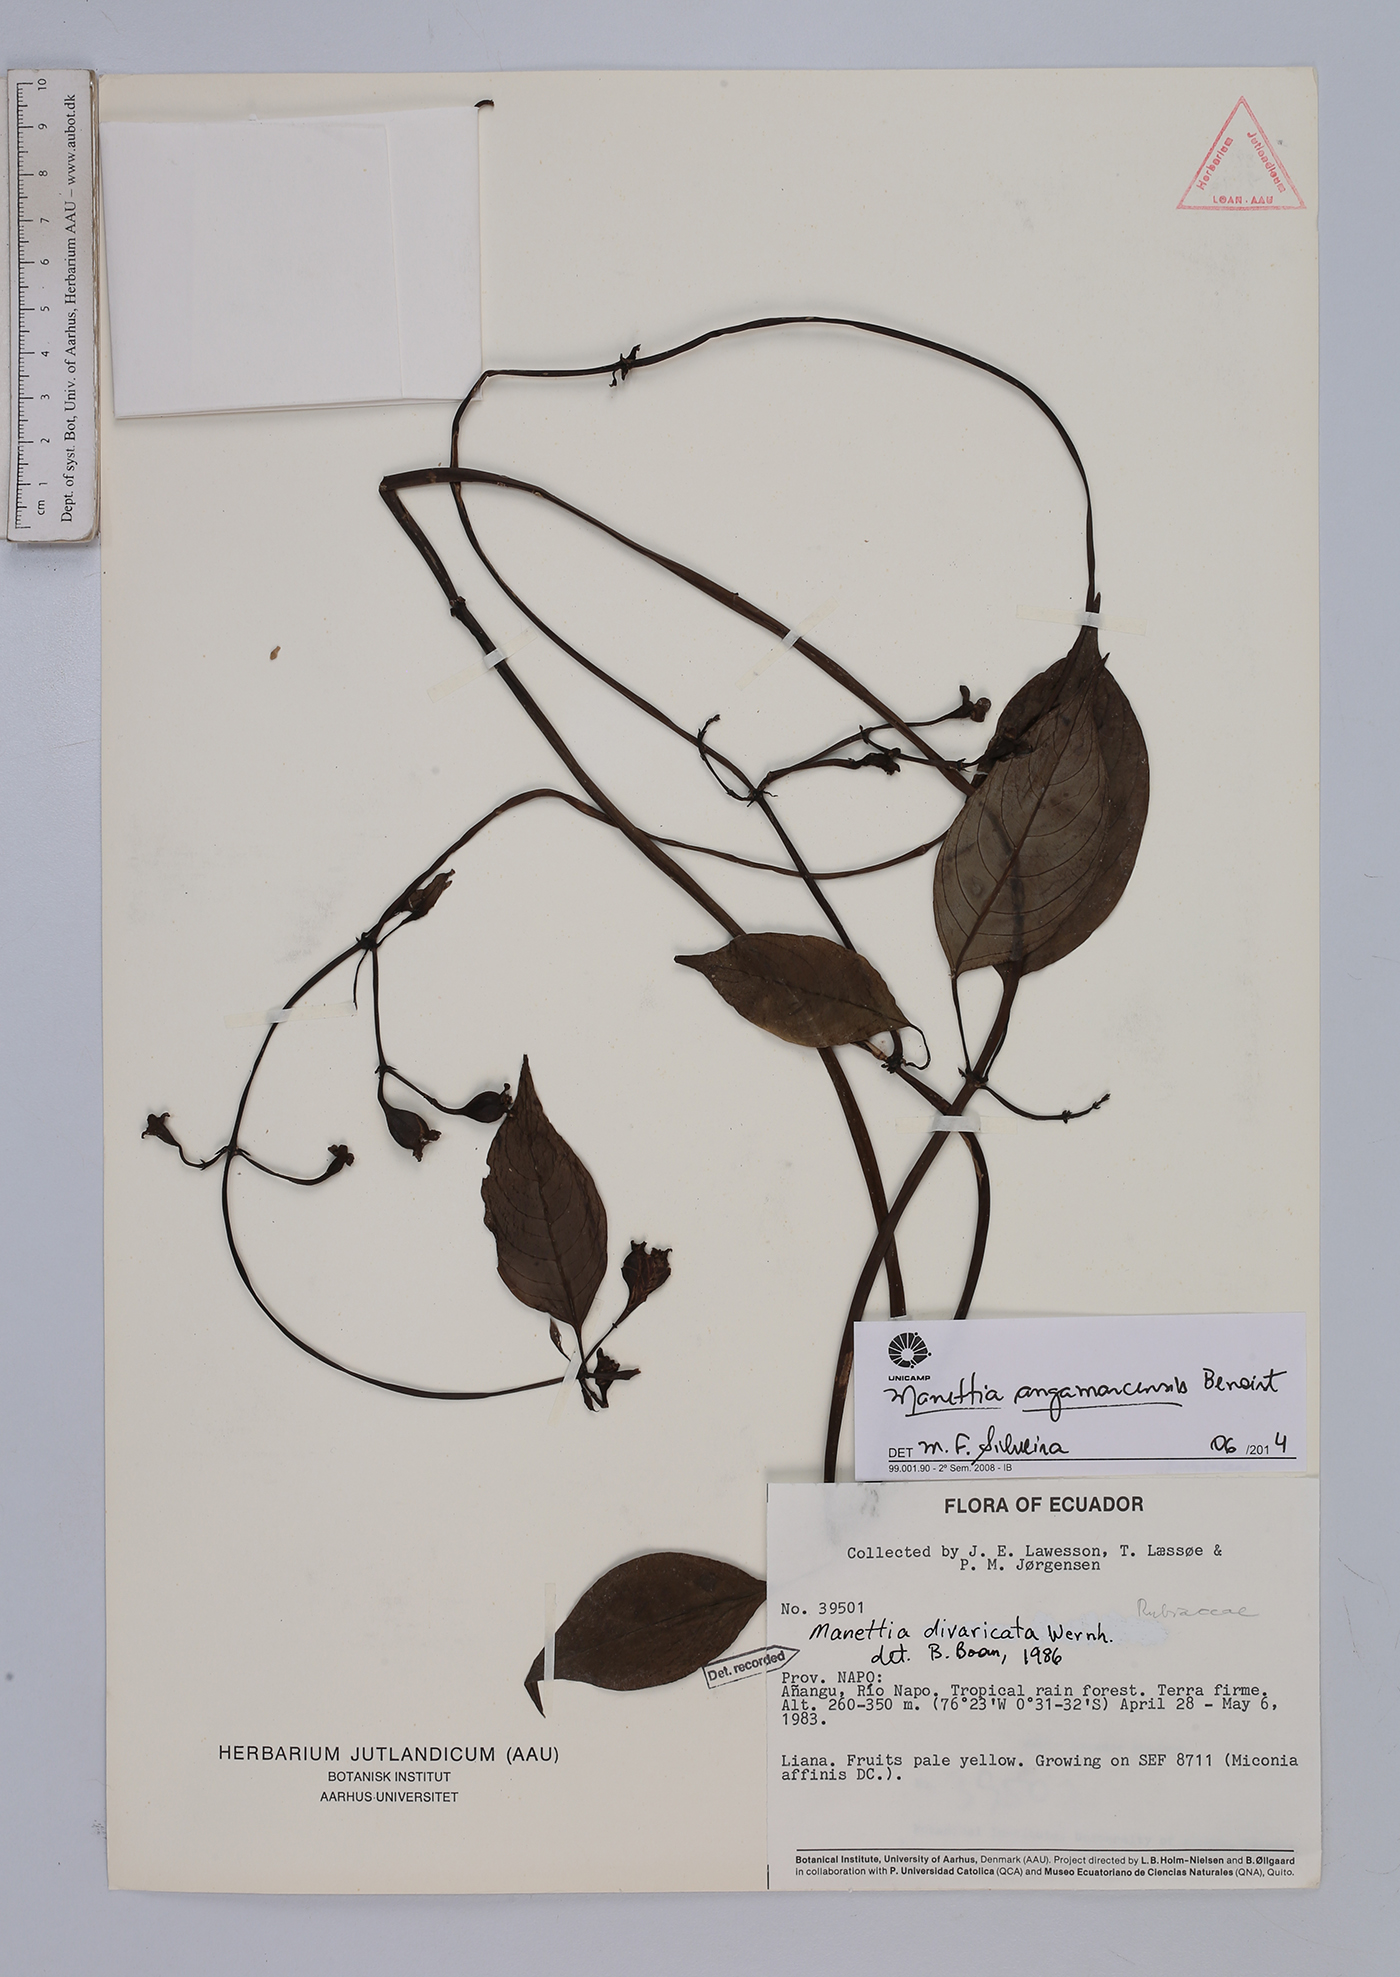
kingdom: Plantae
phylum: Tracheophyta
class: Magnoliopsida
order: Gentianales
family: Rubiaceae
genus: Manettia
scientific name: Manettia angamarcensis
